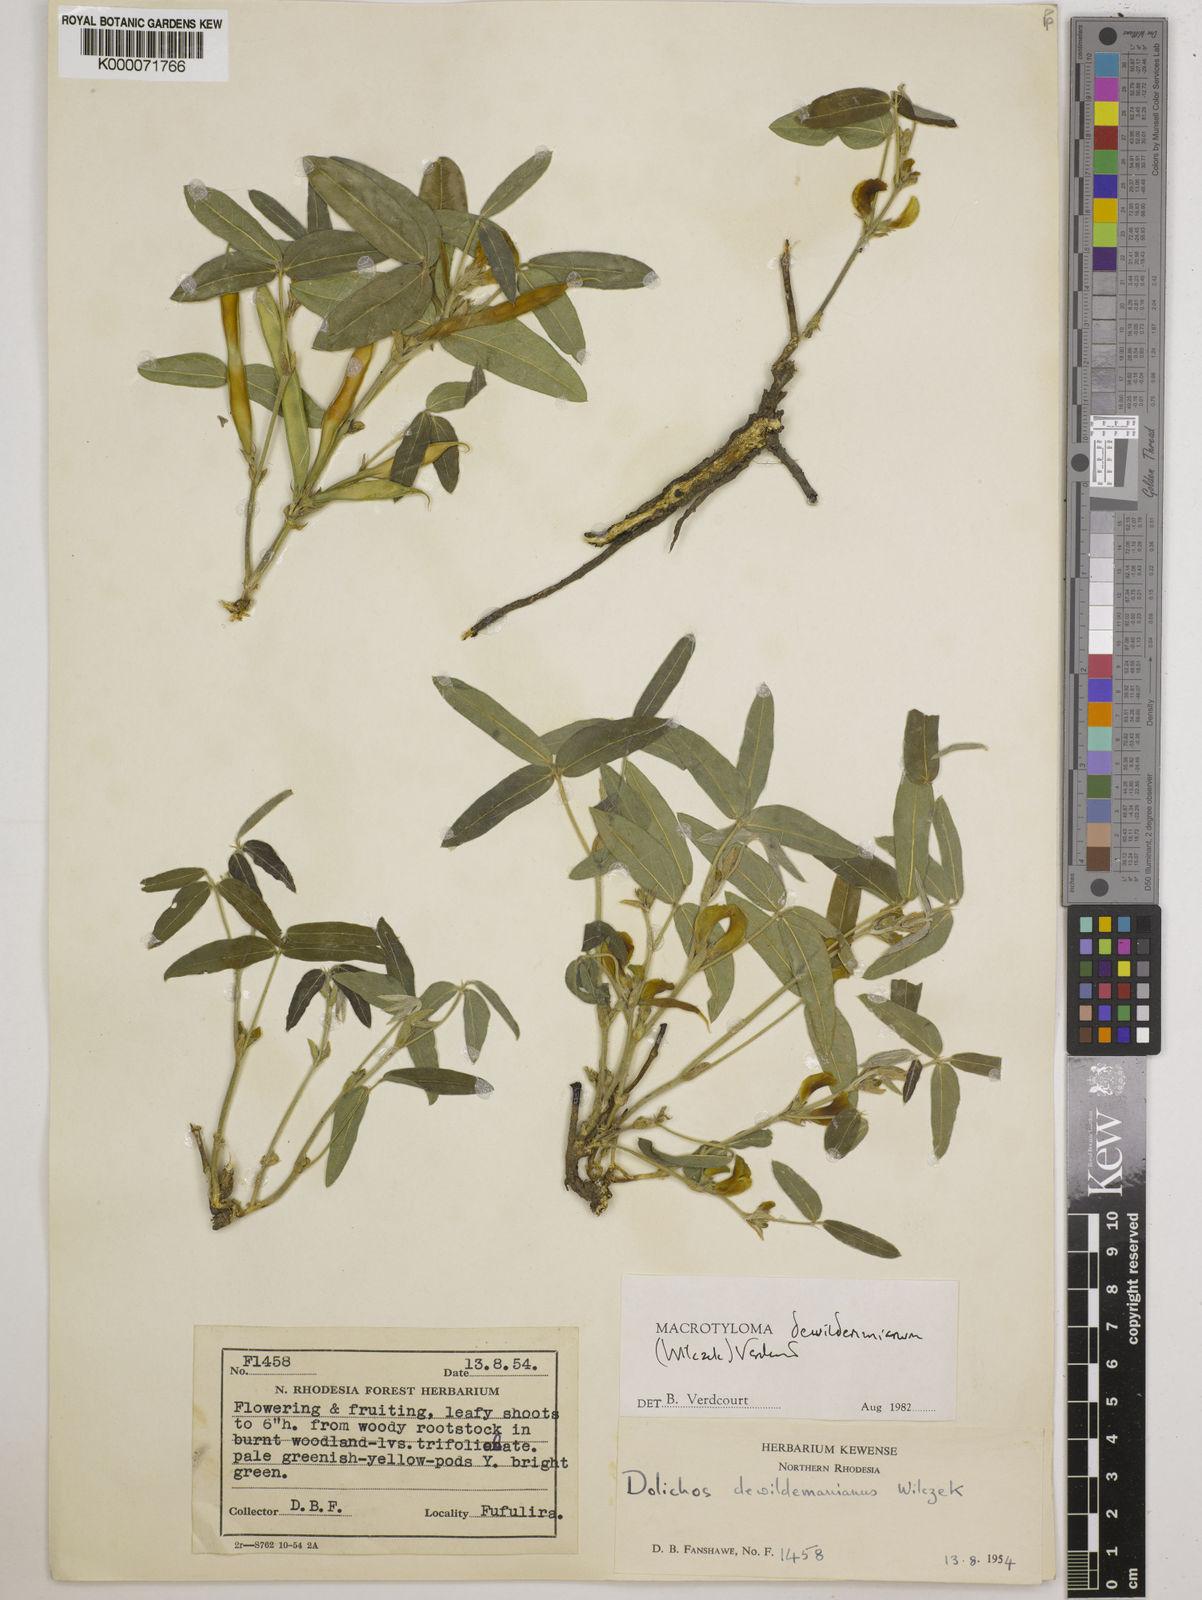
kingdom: Plantae
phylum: Tracheophyta
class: Magnoliopsida
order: Fabales
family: Fabaceae
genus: Macrotyloma
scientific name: Macrotyloma dewildemanianum
